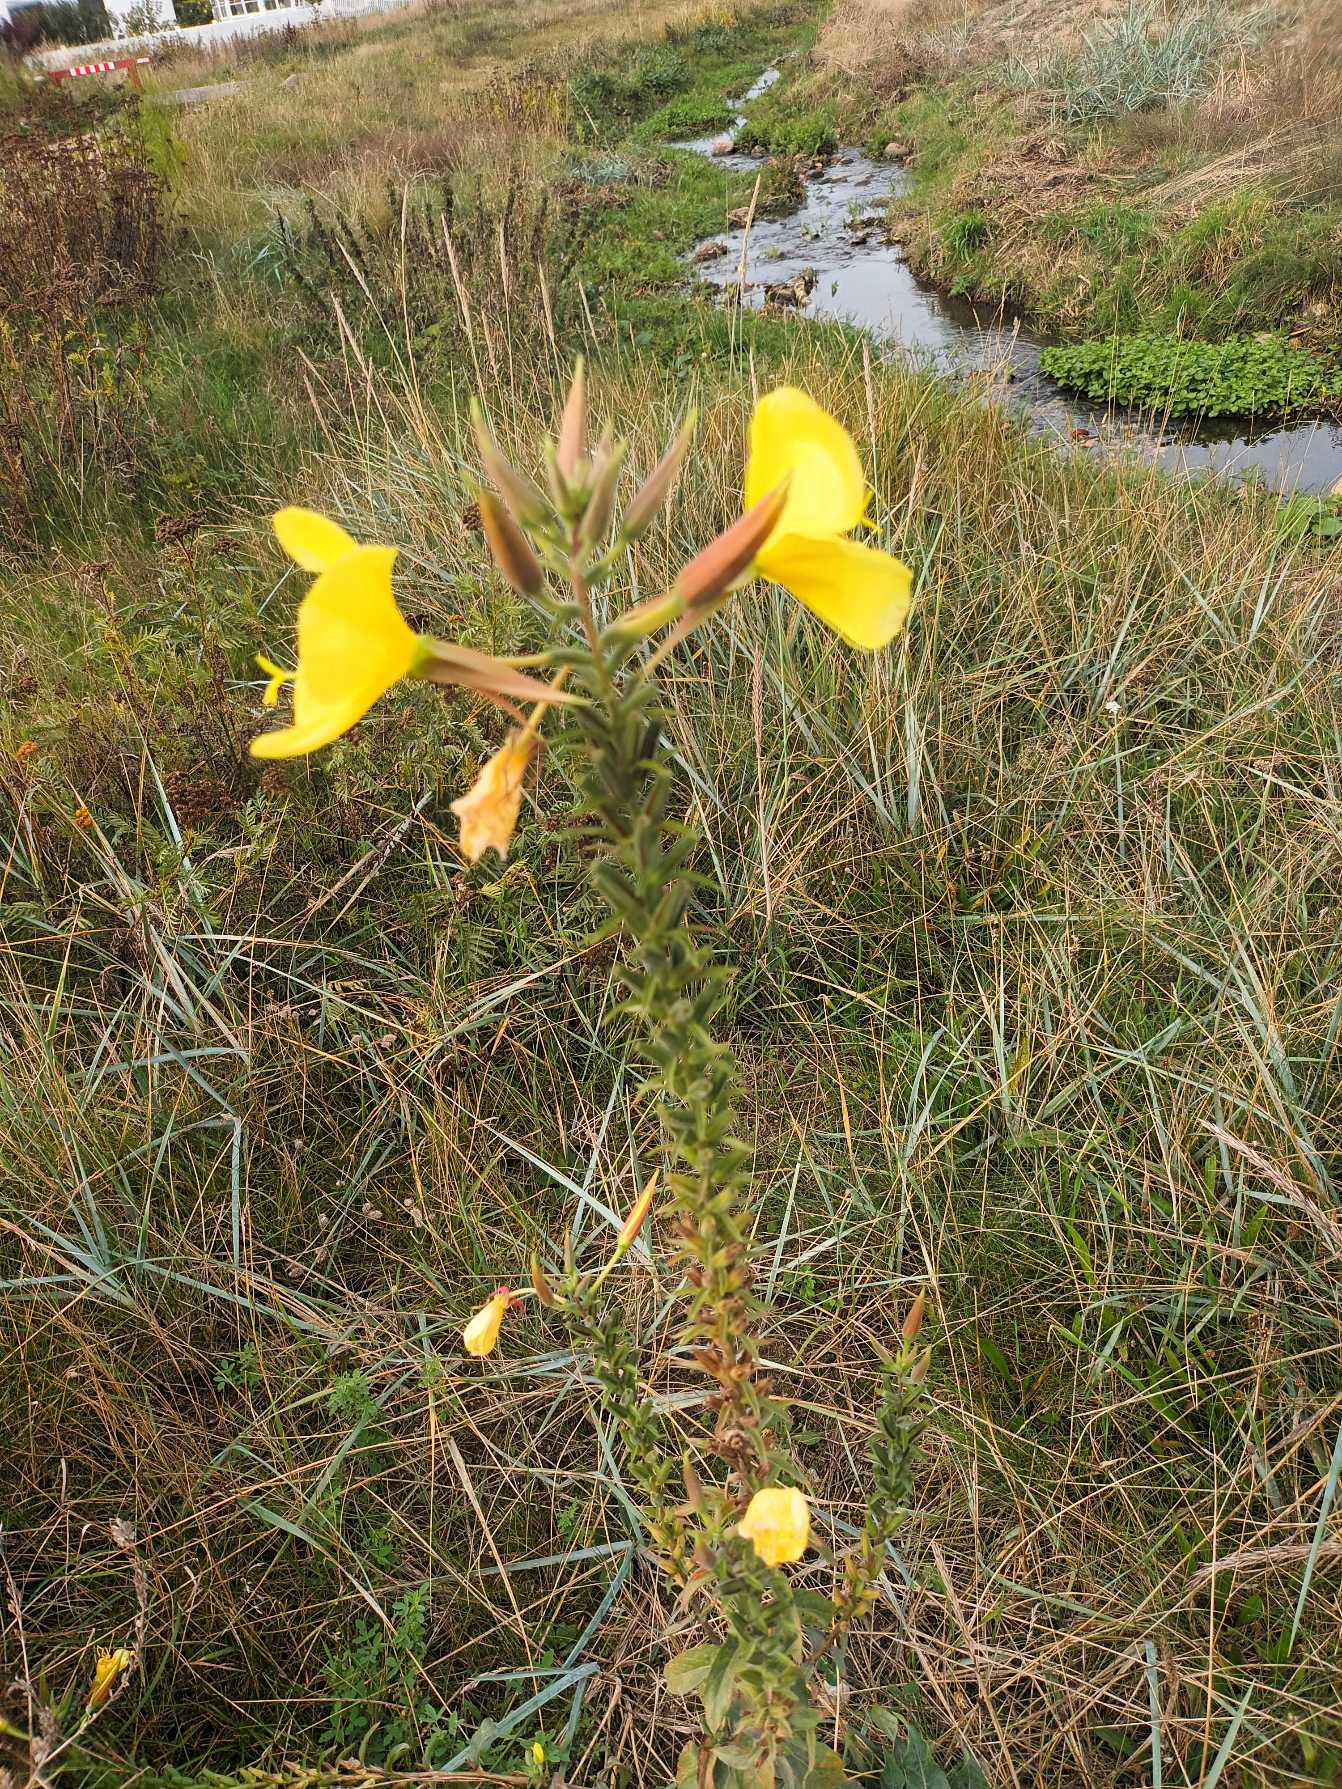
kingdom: Plantae
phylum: Tracheophyta
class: Magnoliopsida
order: Myrtales
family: Onagraceae
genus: Oenothera
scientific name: Oenothera glazioviana
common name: Kæmpe-natlys
